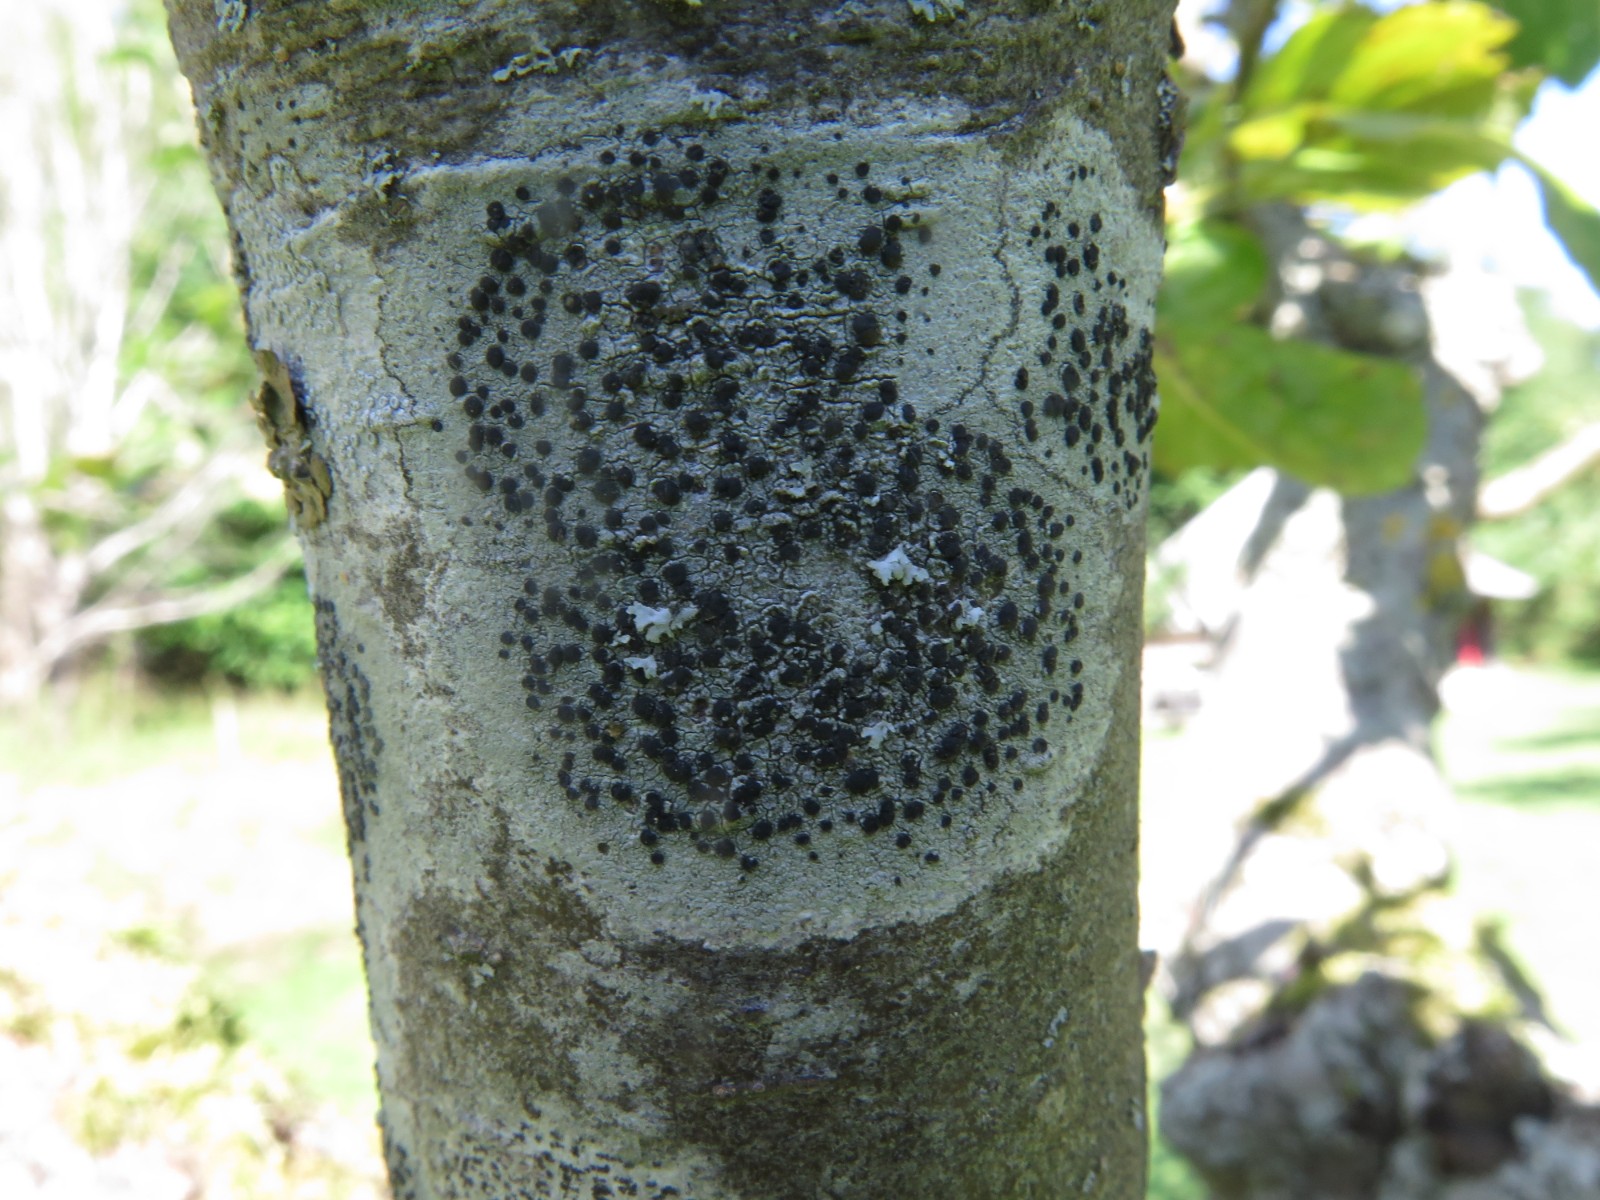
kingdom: Fungi
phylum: Ascomycota
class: Lecanoromycetes
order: Lecanorales
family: Lecanoraceae
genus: Lecidella
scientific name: Lecidella elaeochroma
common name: grågrøn skivelav
